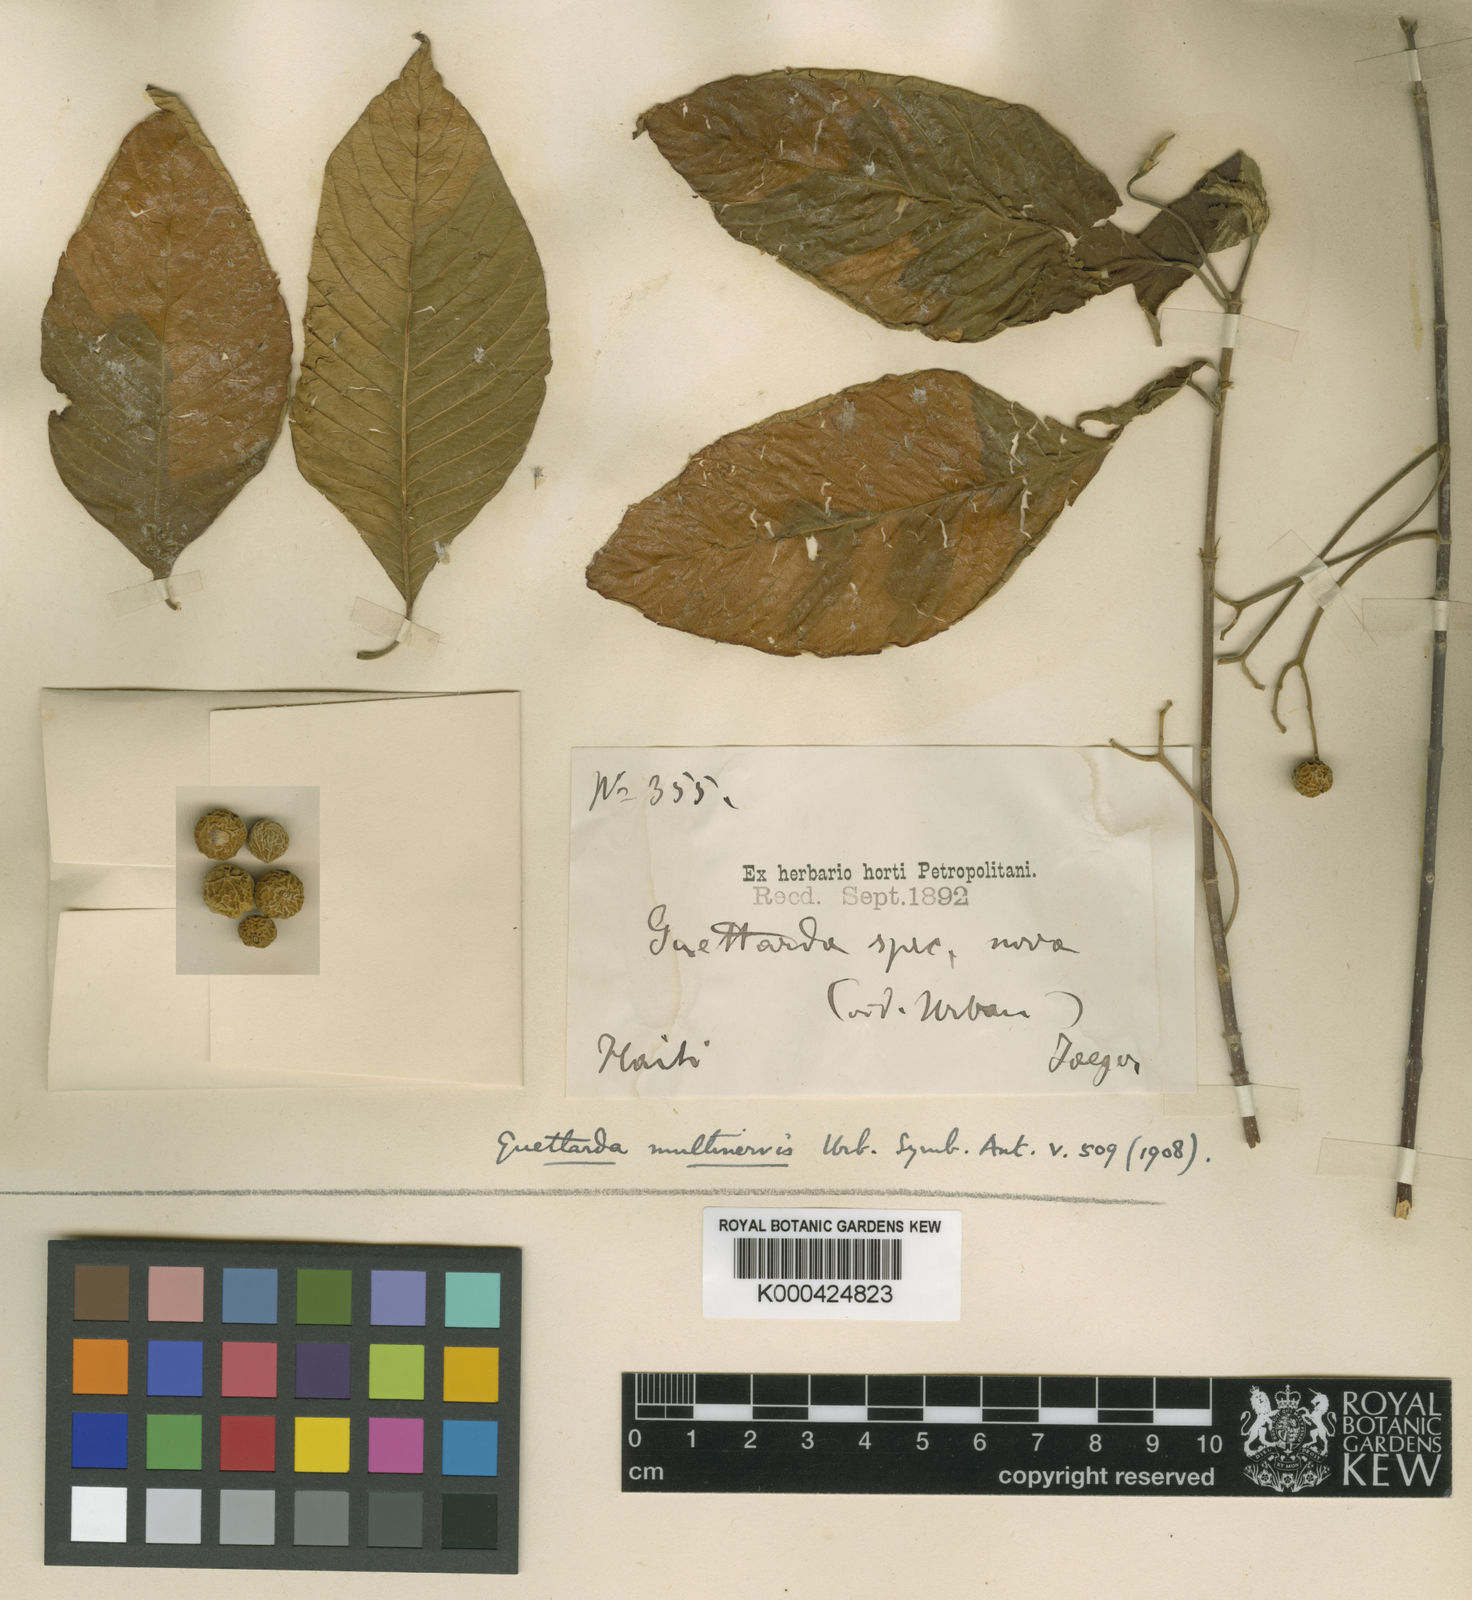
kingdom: Plantae
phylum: Tracheophyta
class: Magnoliopsida
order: Gentianales
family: Rubiaceae
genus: Guettarda
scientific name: Guettarda multinervis
